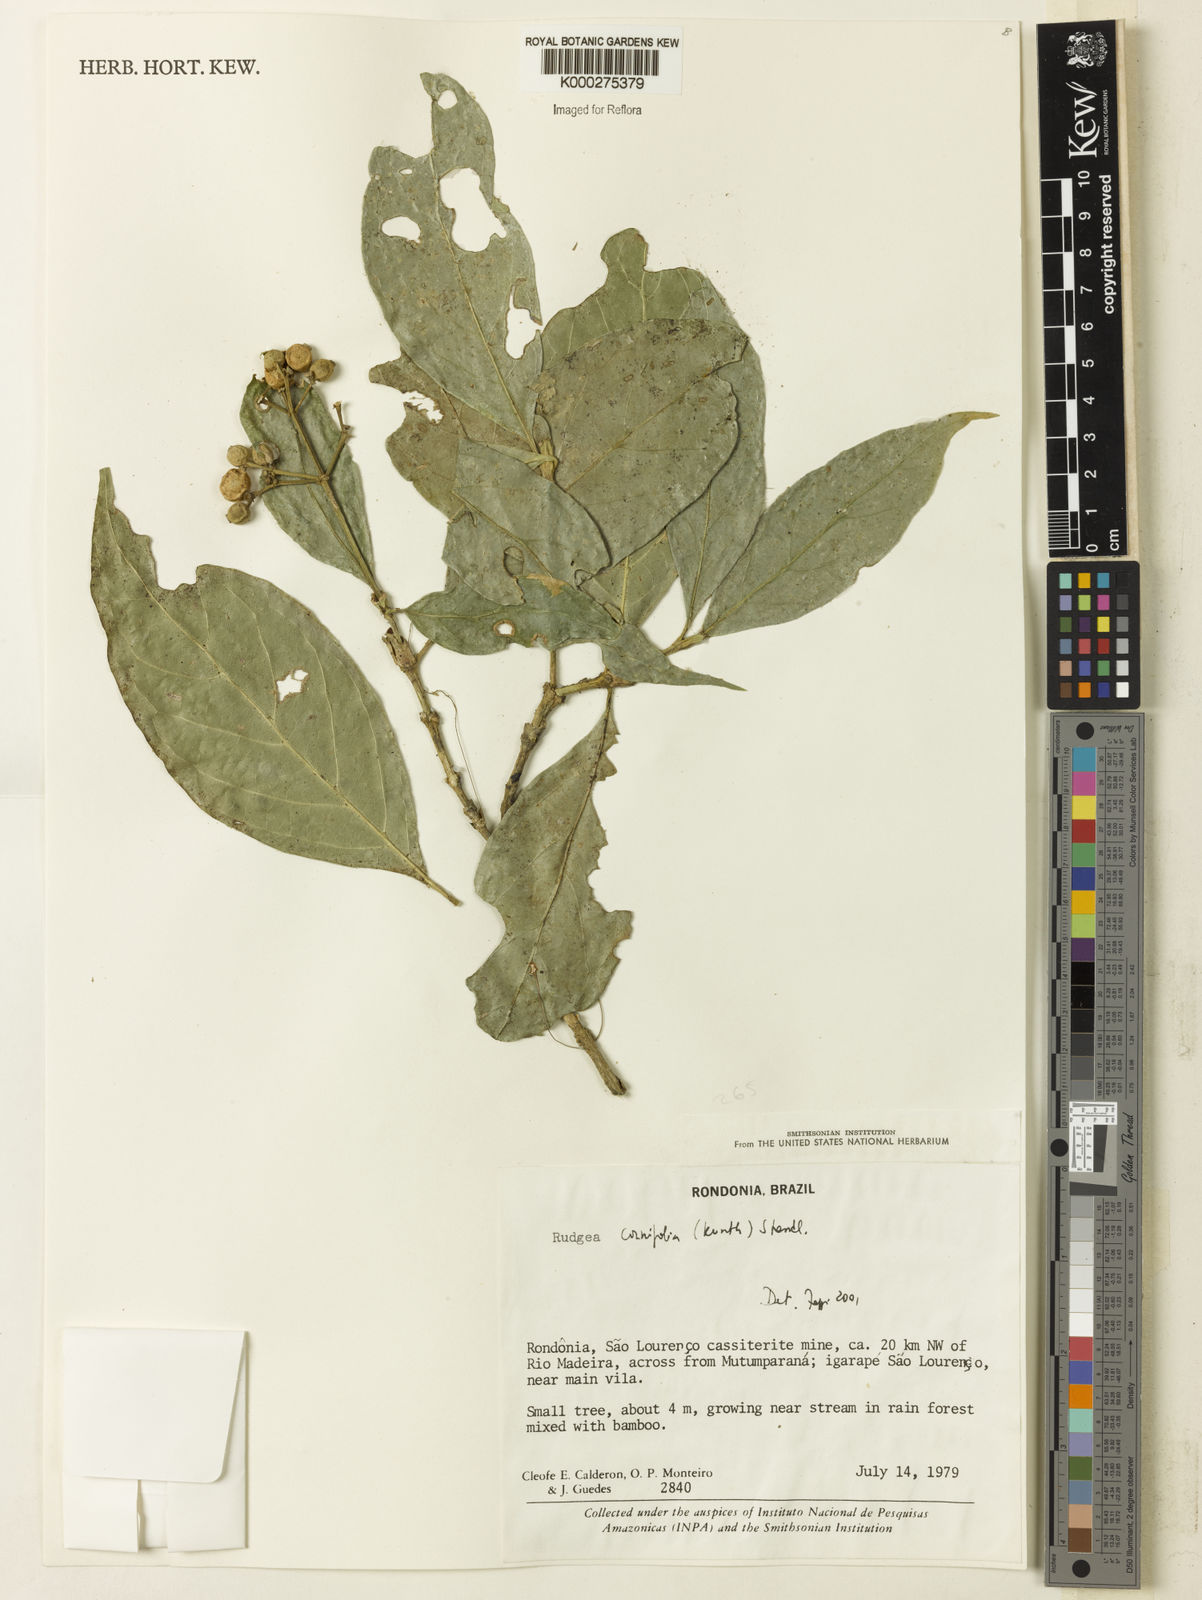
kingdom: Plantae
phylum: Tracheophyta
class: Magnoliopsida
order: Gentianales
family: Rubiaceae
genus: Rudgea
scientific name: Rudgea cornifolia
